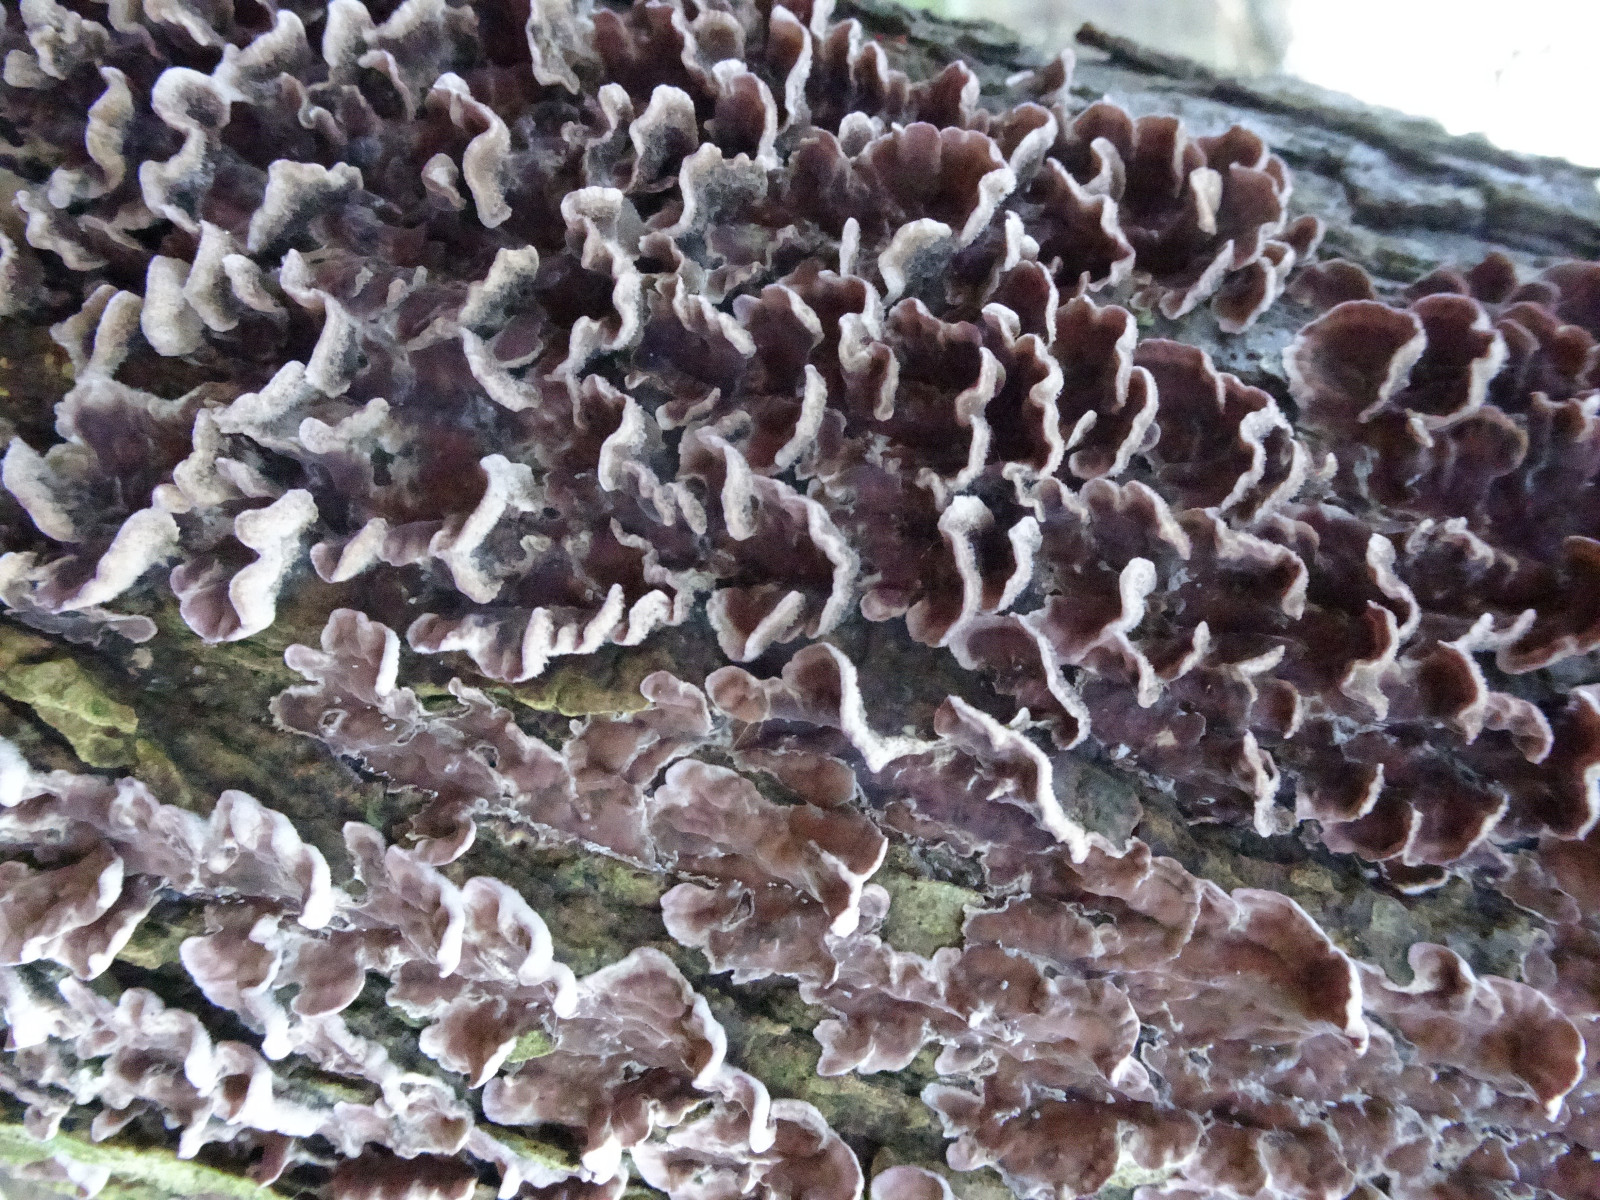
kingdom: Fungi
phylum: Basidiomycota
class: Agaricomycetes
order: Agaricales
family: Cyphellaceae
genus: Chondrostereum
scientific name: Chondrostereum purpureum
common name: purpurlædersvamp
